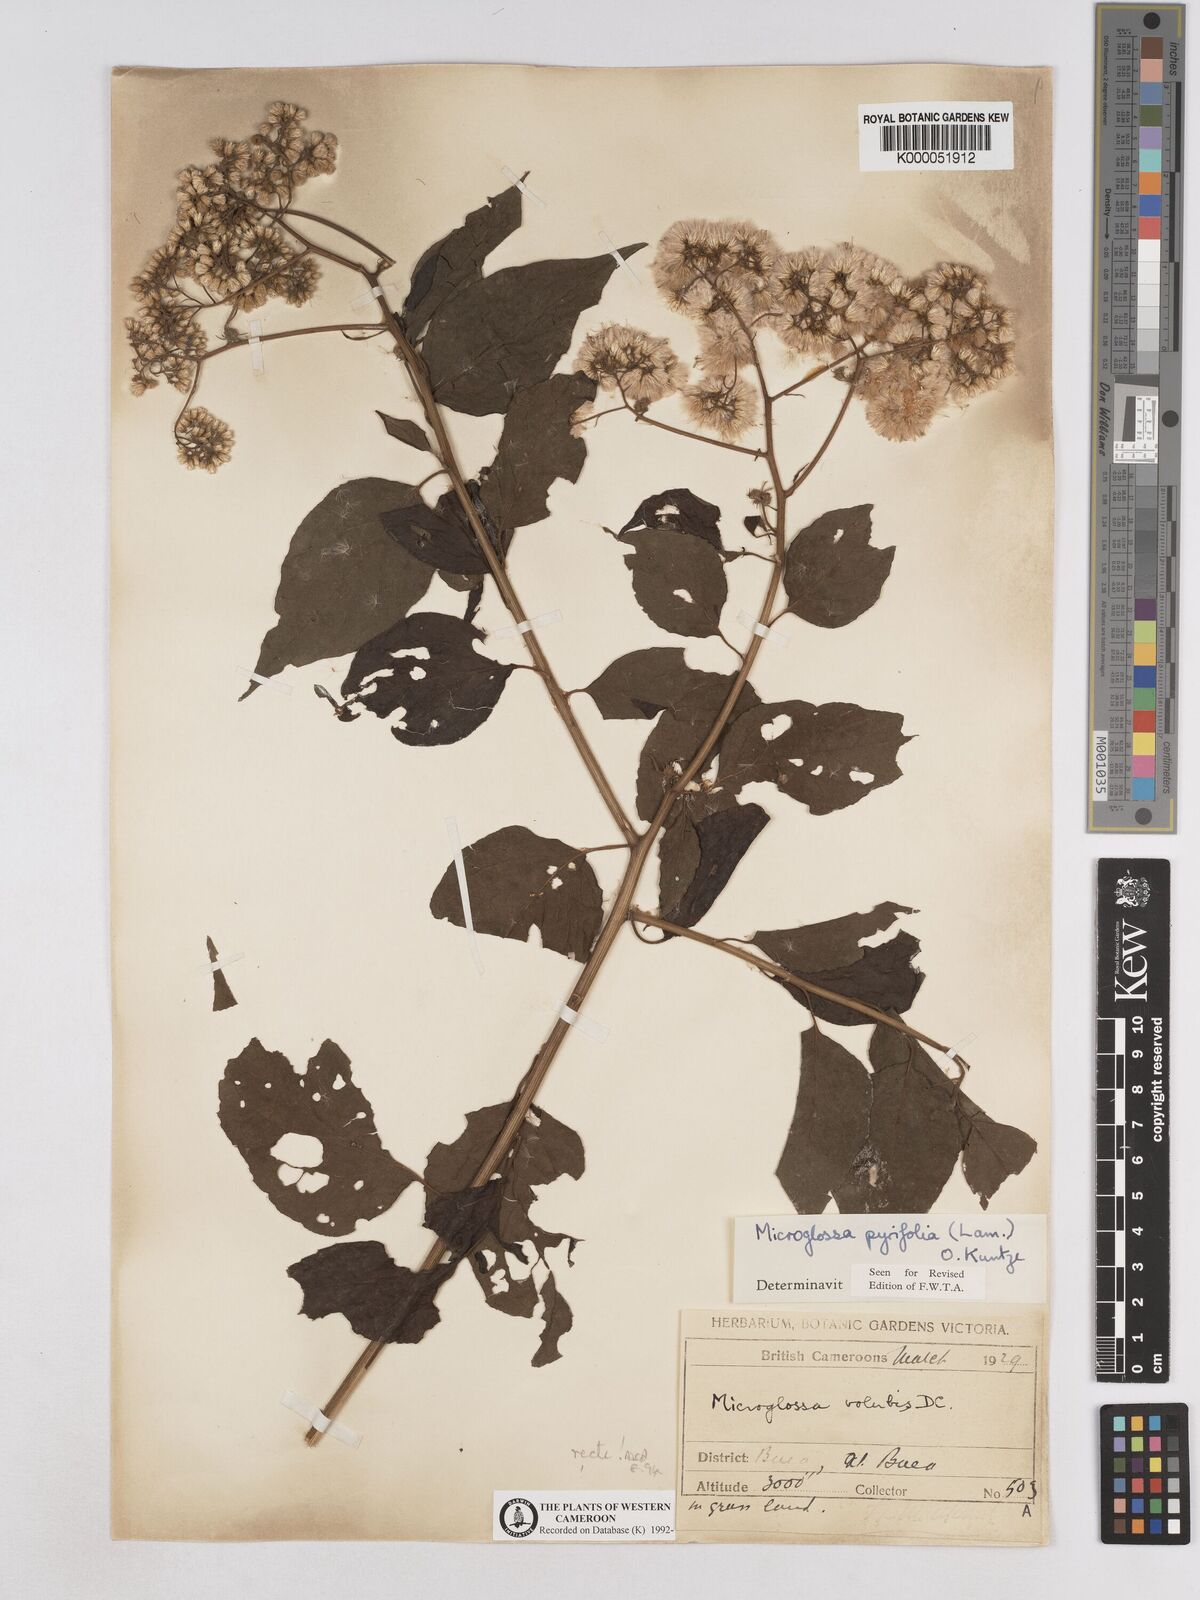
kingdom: Plantae
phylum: Tracheophyta
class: Magnoliopsida
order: Asterales
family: Asteraceae
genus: Microglossa
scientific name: Microglossa pyrifolia
